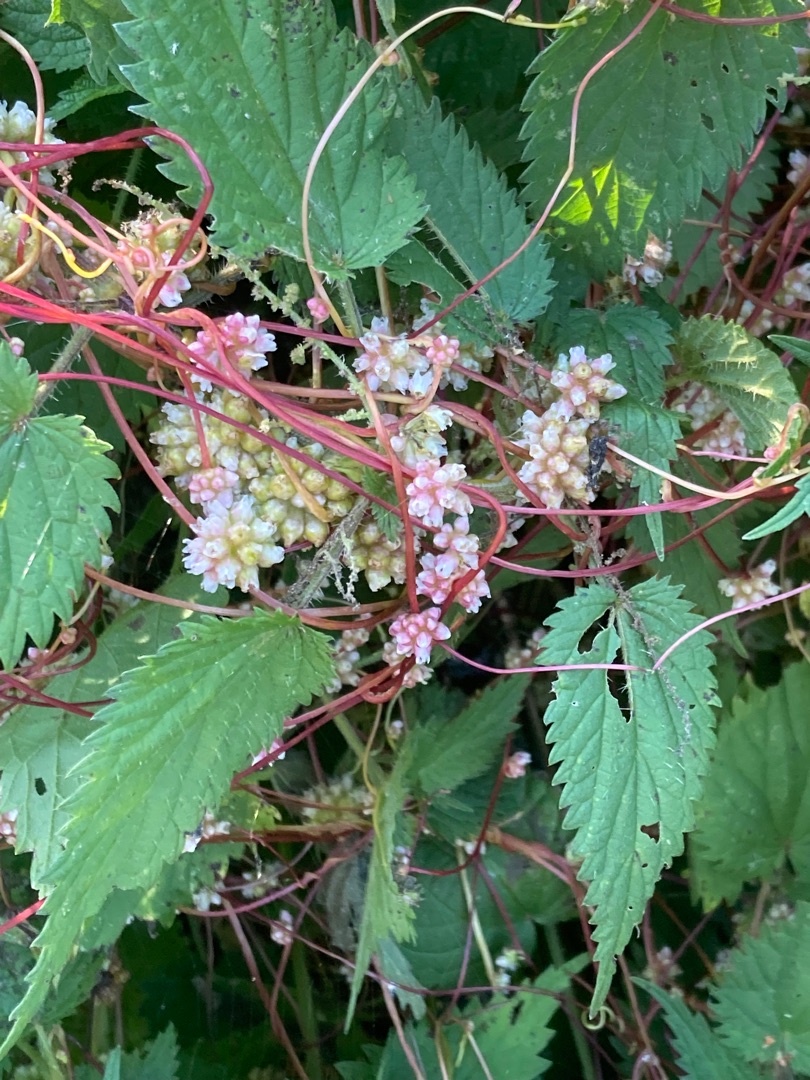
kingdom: Plantae
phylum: Tracheophyta
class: Magnoliopsida
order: Solanales
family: Convolvulaceae
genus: Cuscuta
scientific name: Cuscuta europaea
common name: Nælde-silke
